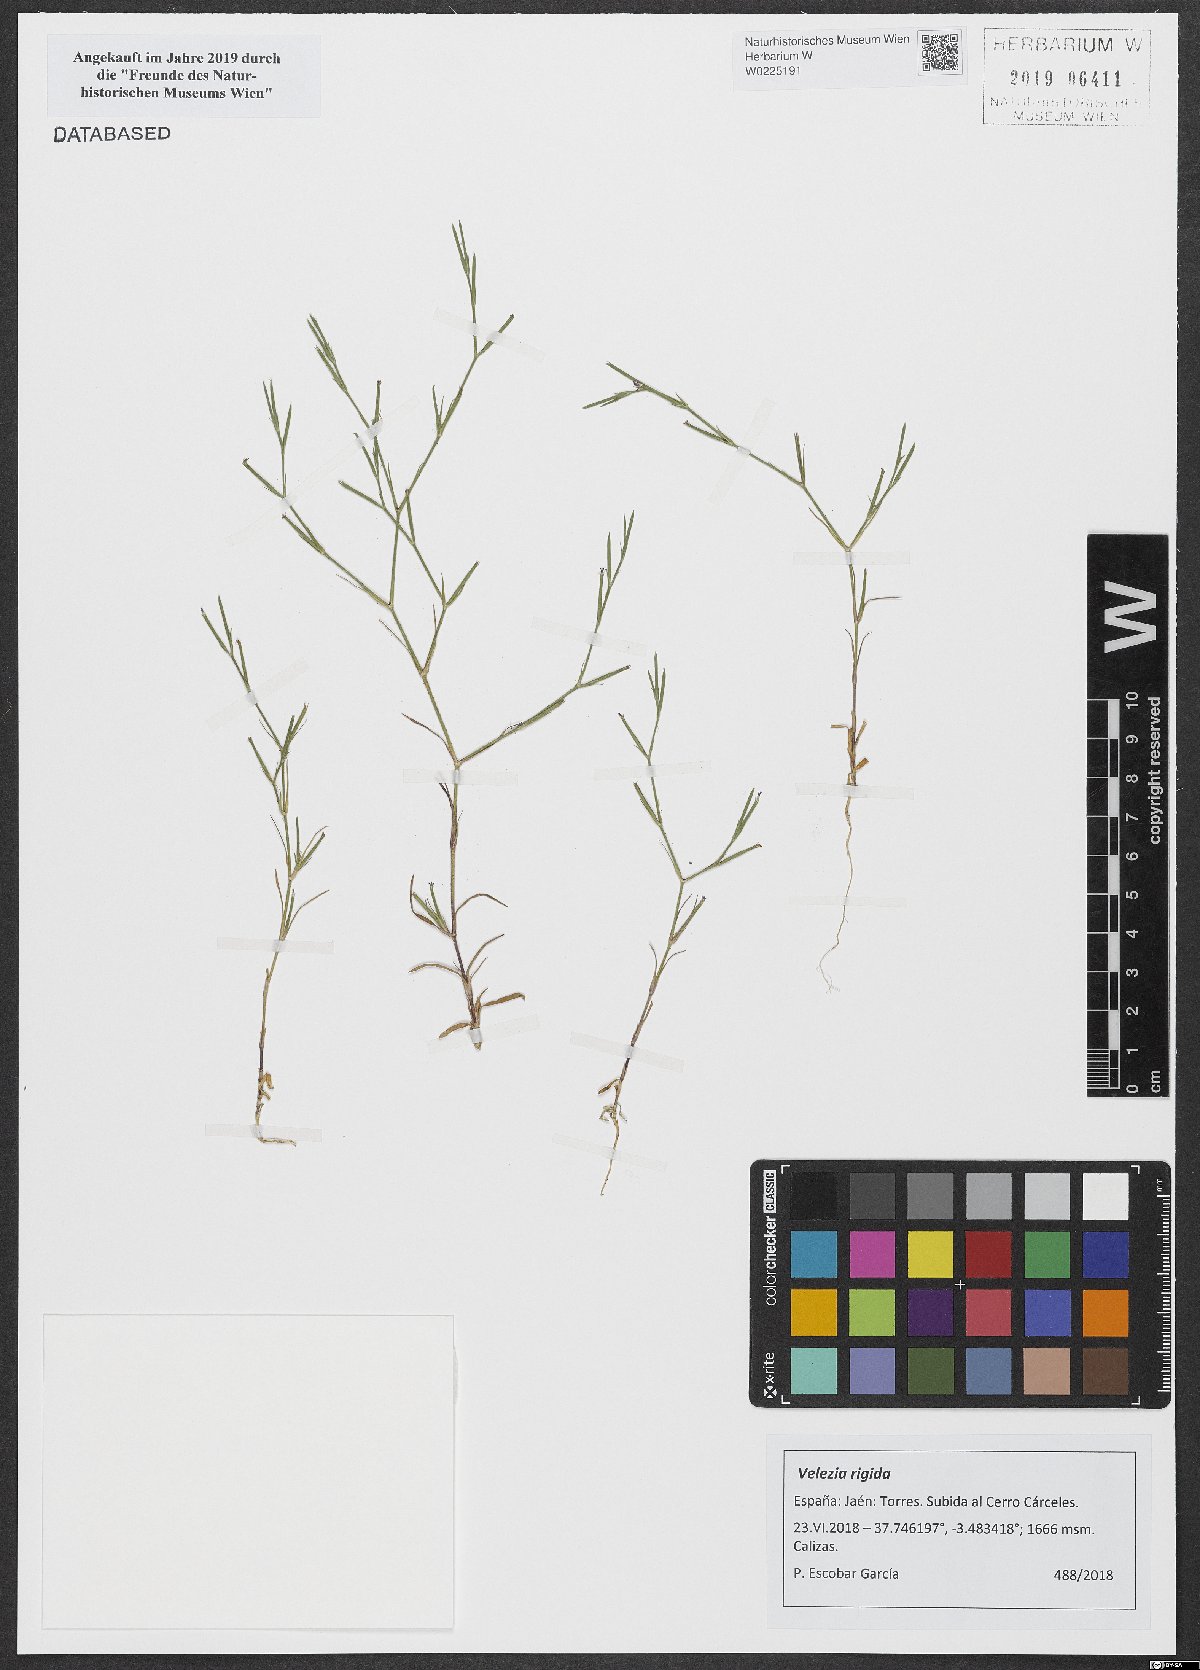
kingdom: Plantae
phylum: Tracheophyta
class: Magnoliopsida
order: Caryophyllales
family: Caryophyllaceae
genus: Dianthus
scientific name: Dianthus nudiflorus
